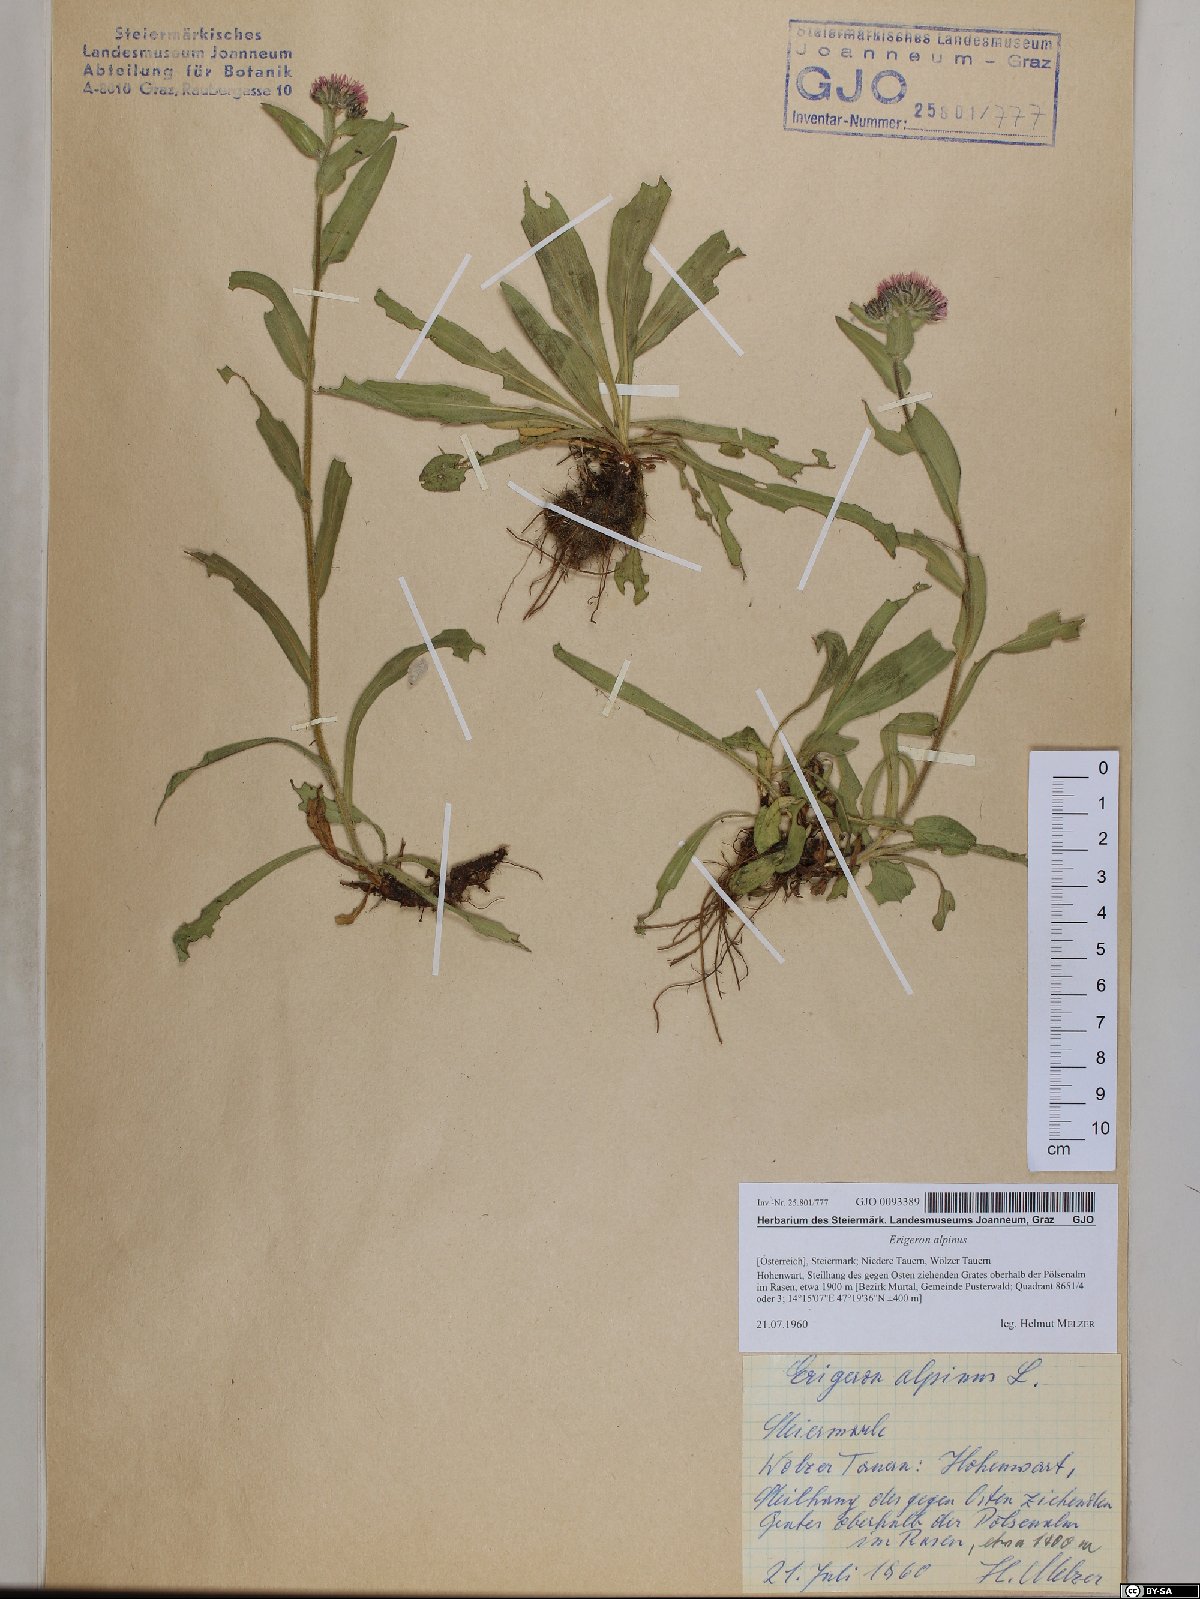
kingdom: Plantae
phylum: Tracheophyta
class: Magnoliopsida
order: Asterales
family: Asteraceae
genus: Erigeron
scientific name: Erigeron alpinus
